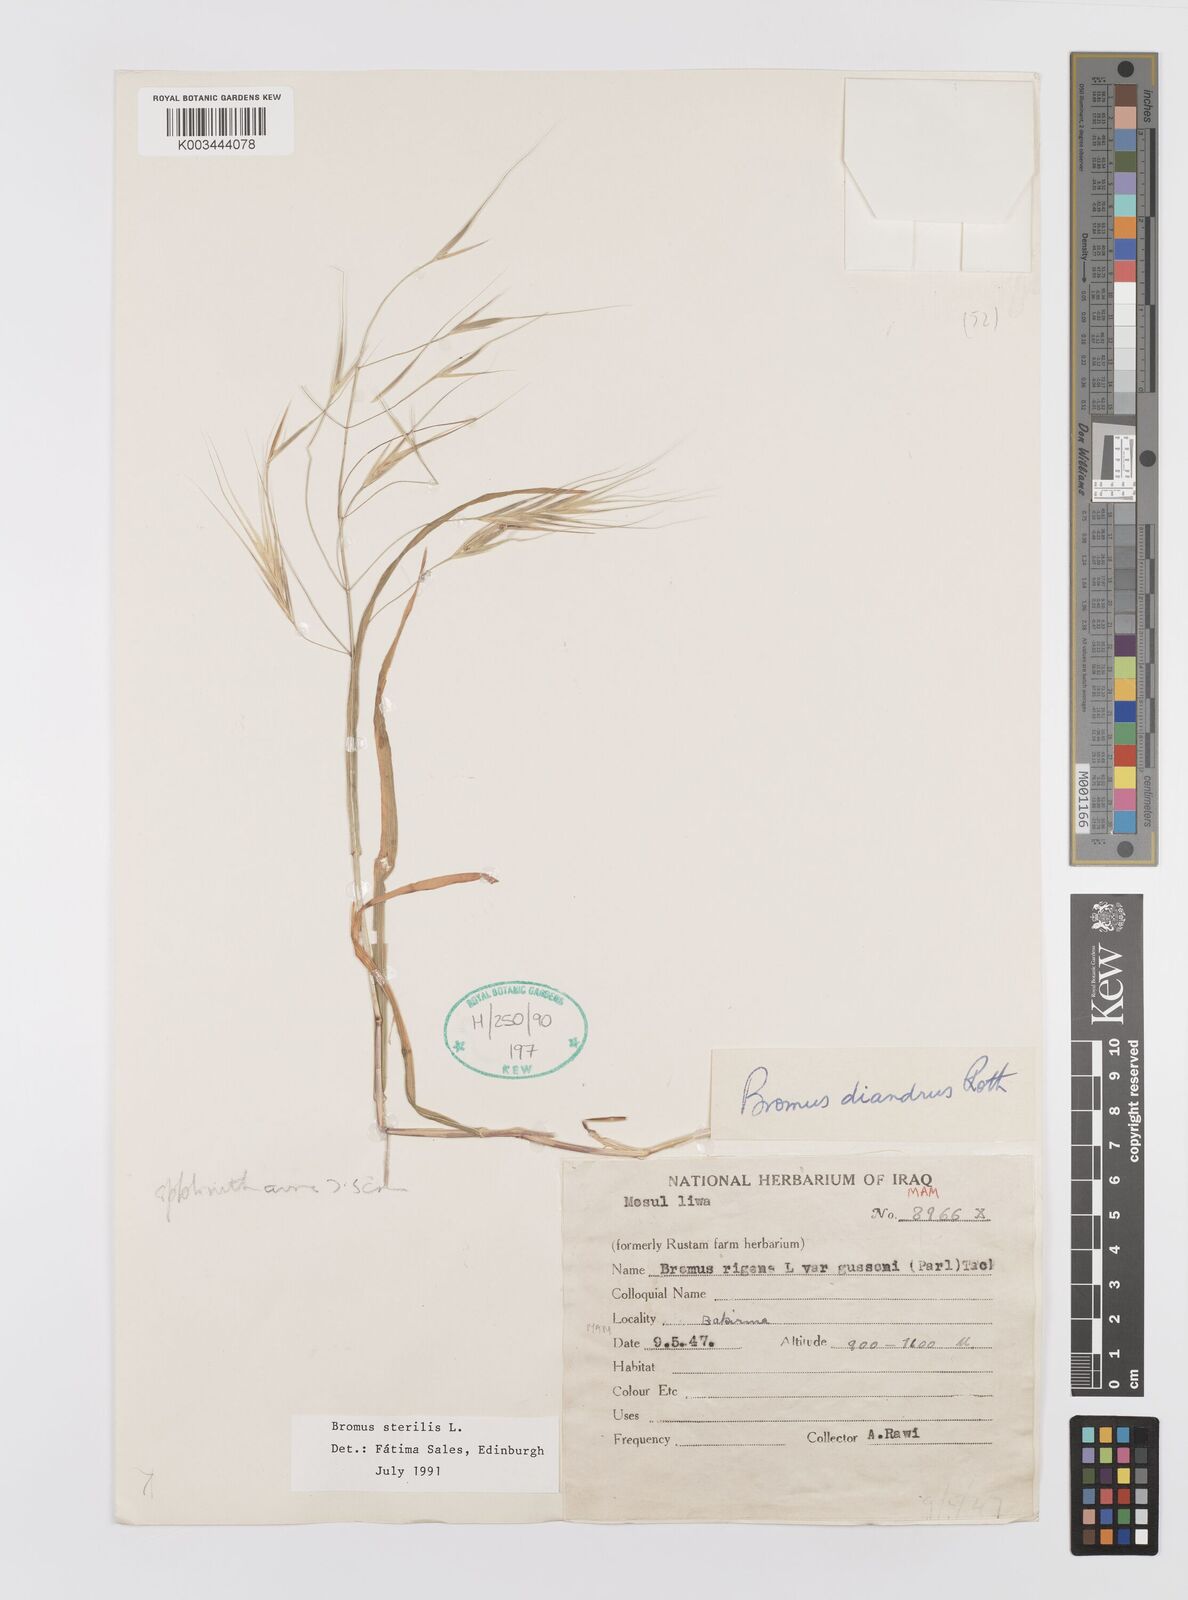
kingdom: Plantae
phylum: Tracheophyta
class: Liliopsida
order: Poales
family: Poaceae
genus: Bromus
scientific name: Bromus sterilis
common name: Poverty brome
